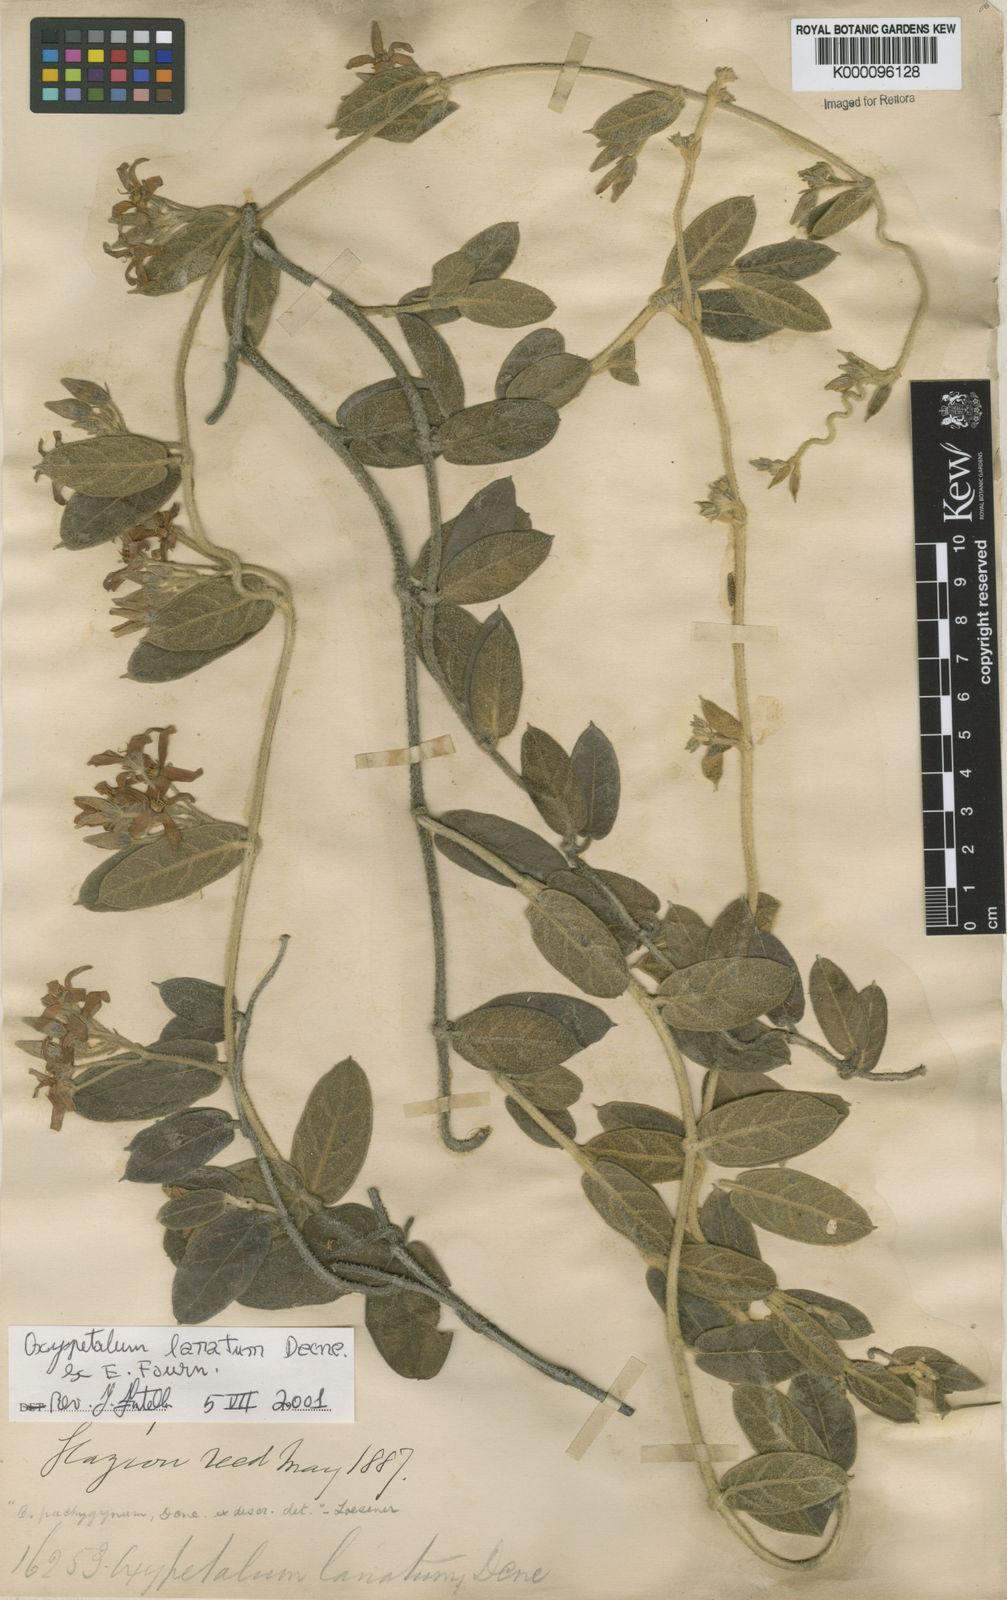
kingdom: Plantae
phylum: Tracheophyta
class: Magnoliopsida
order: Gentianales
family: Apocynaceae
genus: Oxypetalum
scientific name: Oxypetalum lanatum
